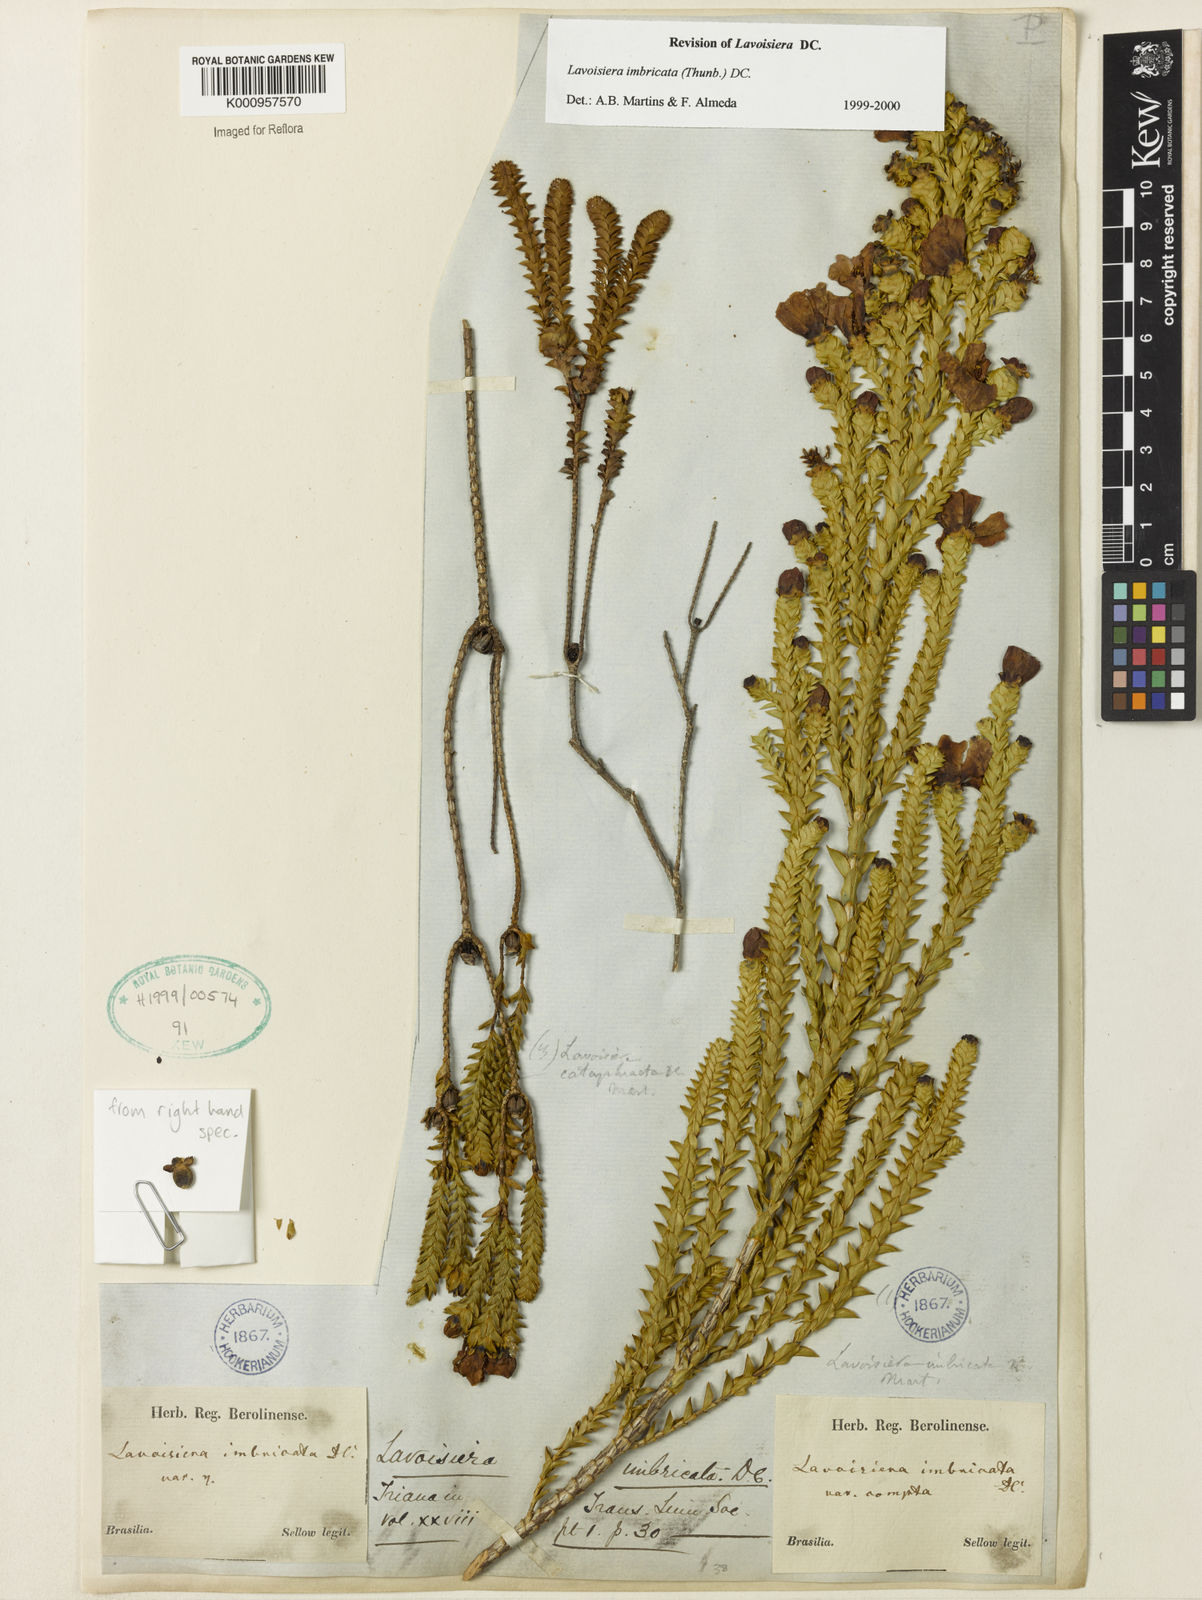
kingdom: Plantae
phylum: Tracheophyta
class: Magnoliopsida
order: Myrtales
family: Melastomataceae
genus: Microlicia
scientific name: Microlicia cataphracta
